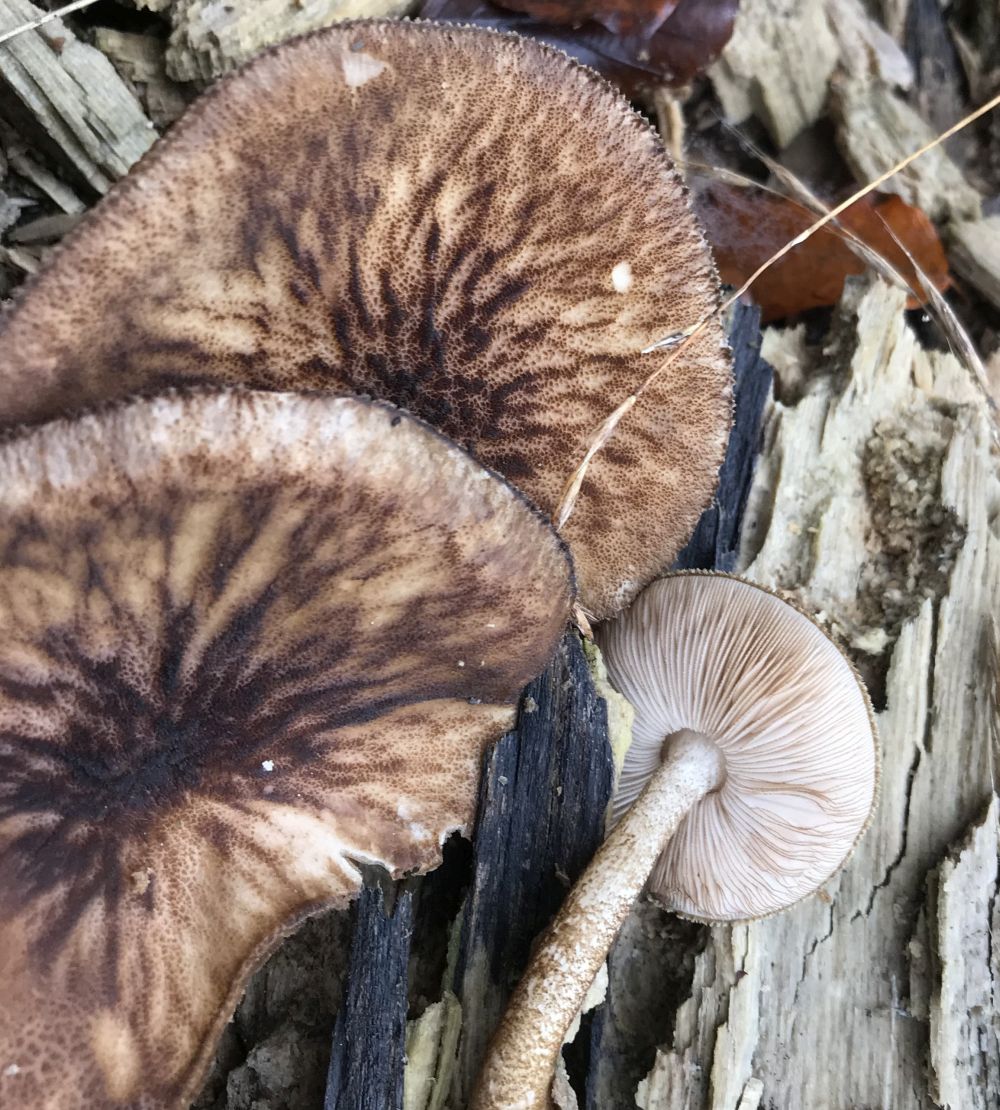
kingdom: Fungi
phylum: Basidiomycota
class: Agaricomycetes
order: Agaricales
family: Pluteaceae
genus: Pluteus
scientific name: Pluteus umbrosus
